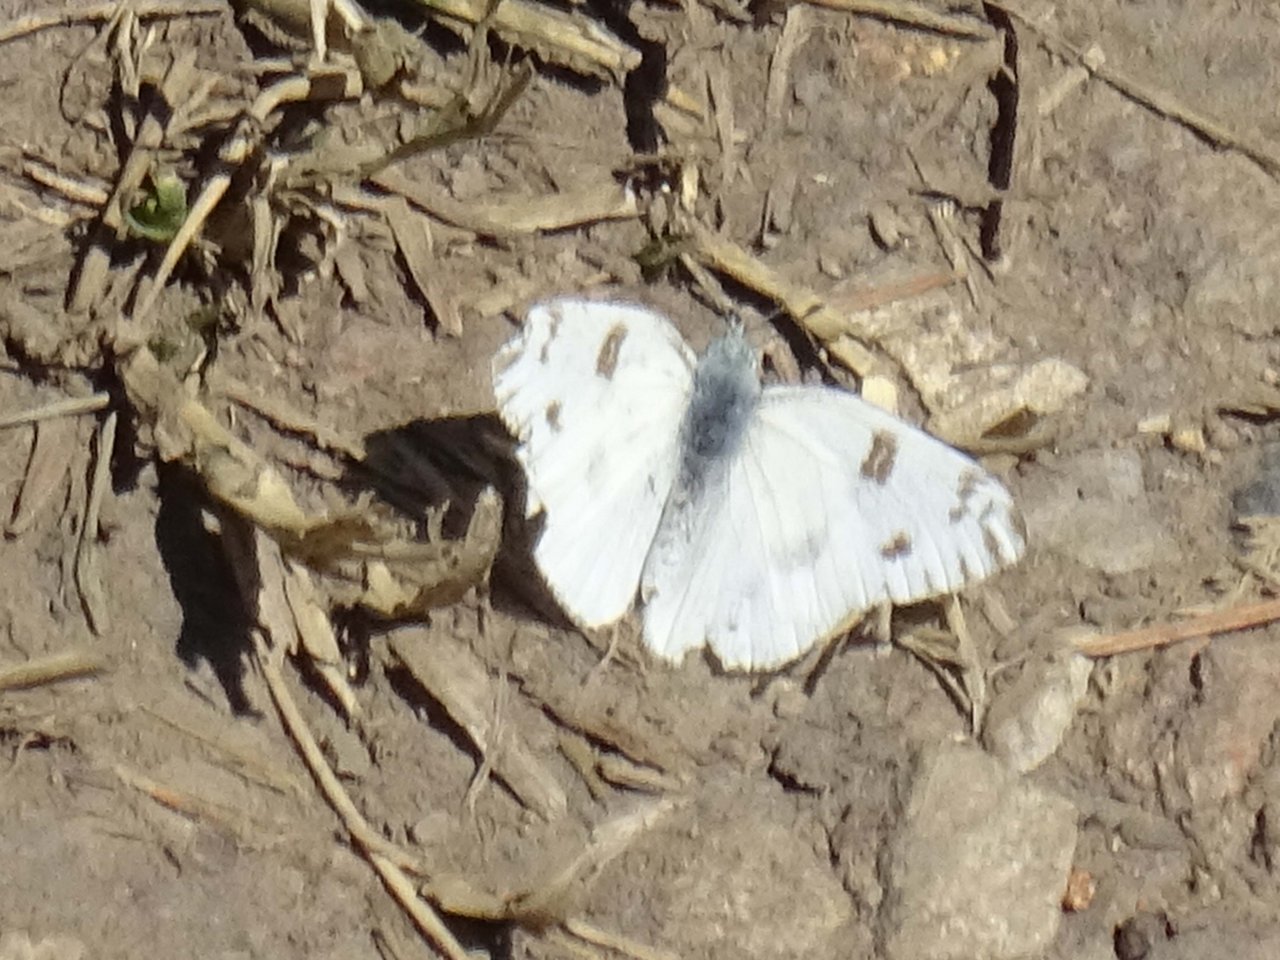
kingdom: Animalia
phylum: Arthropoda
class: Insecta
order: Lepidoptera
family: Pieridae
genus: Pontia
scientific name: Pontia protodice
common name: Checkered White
